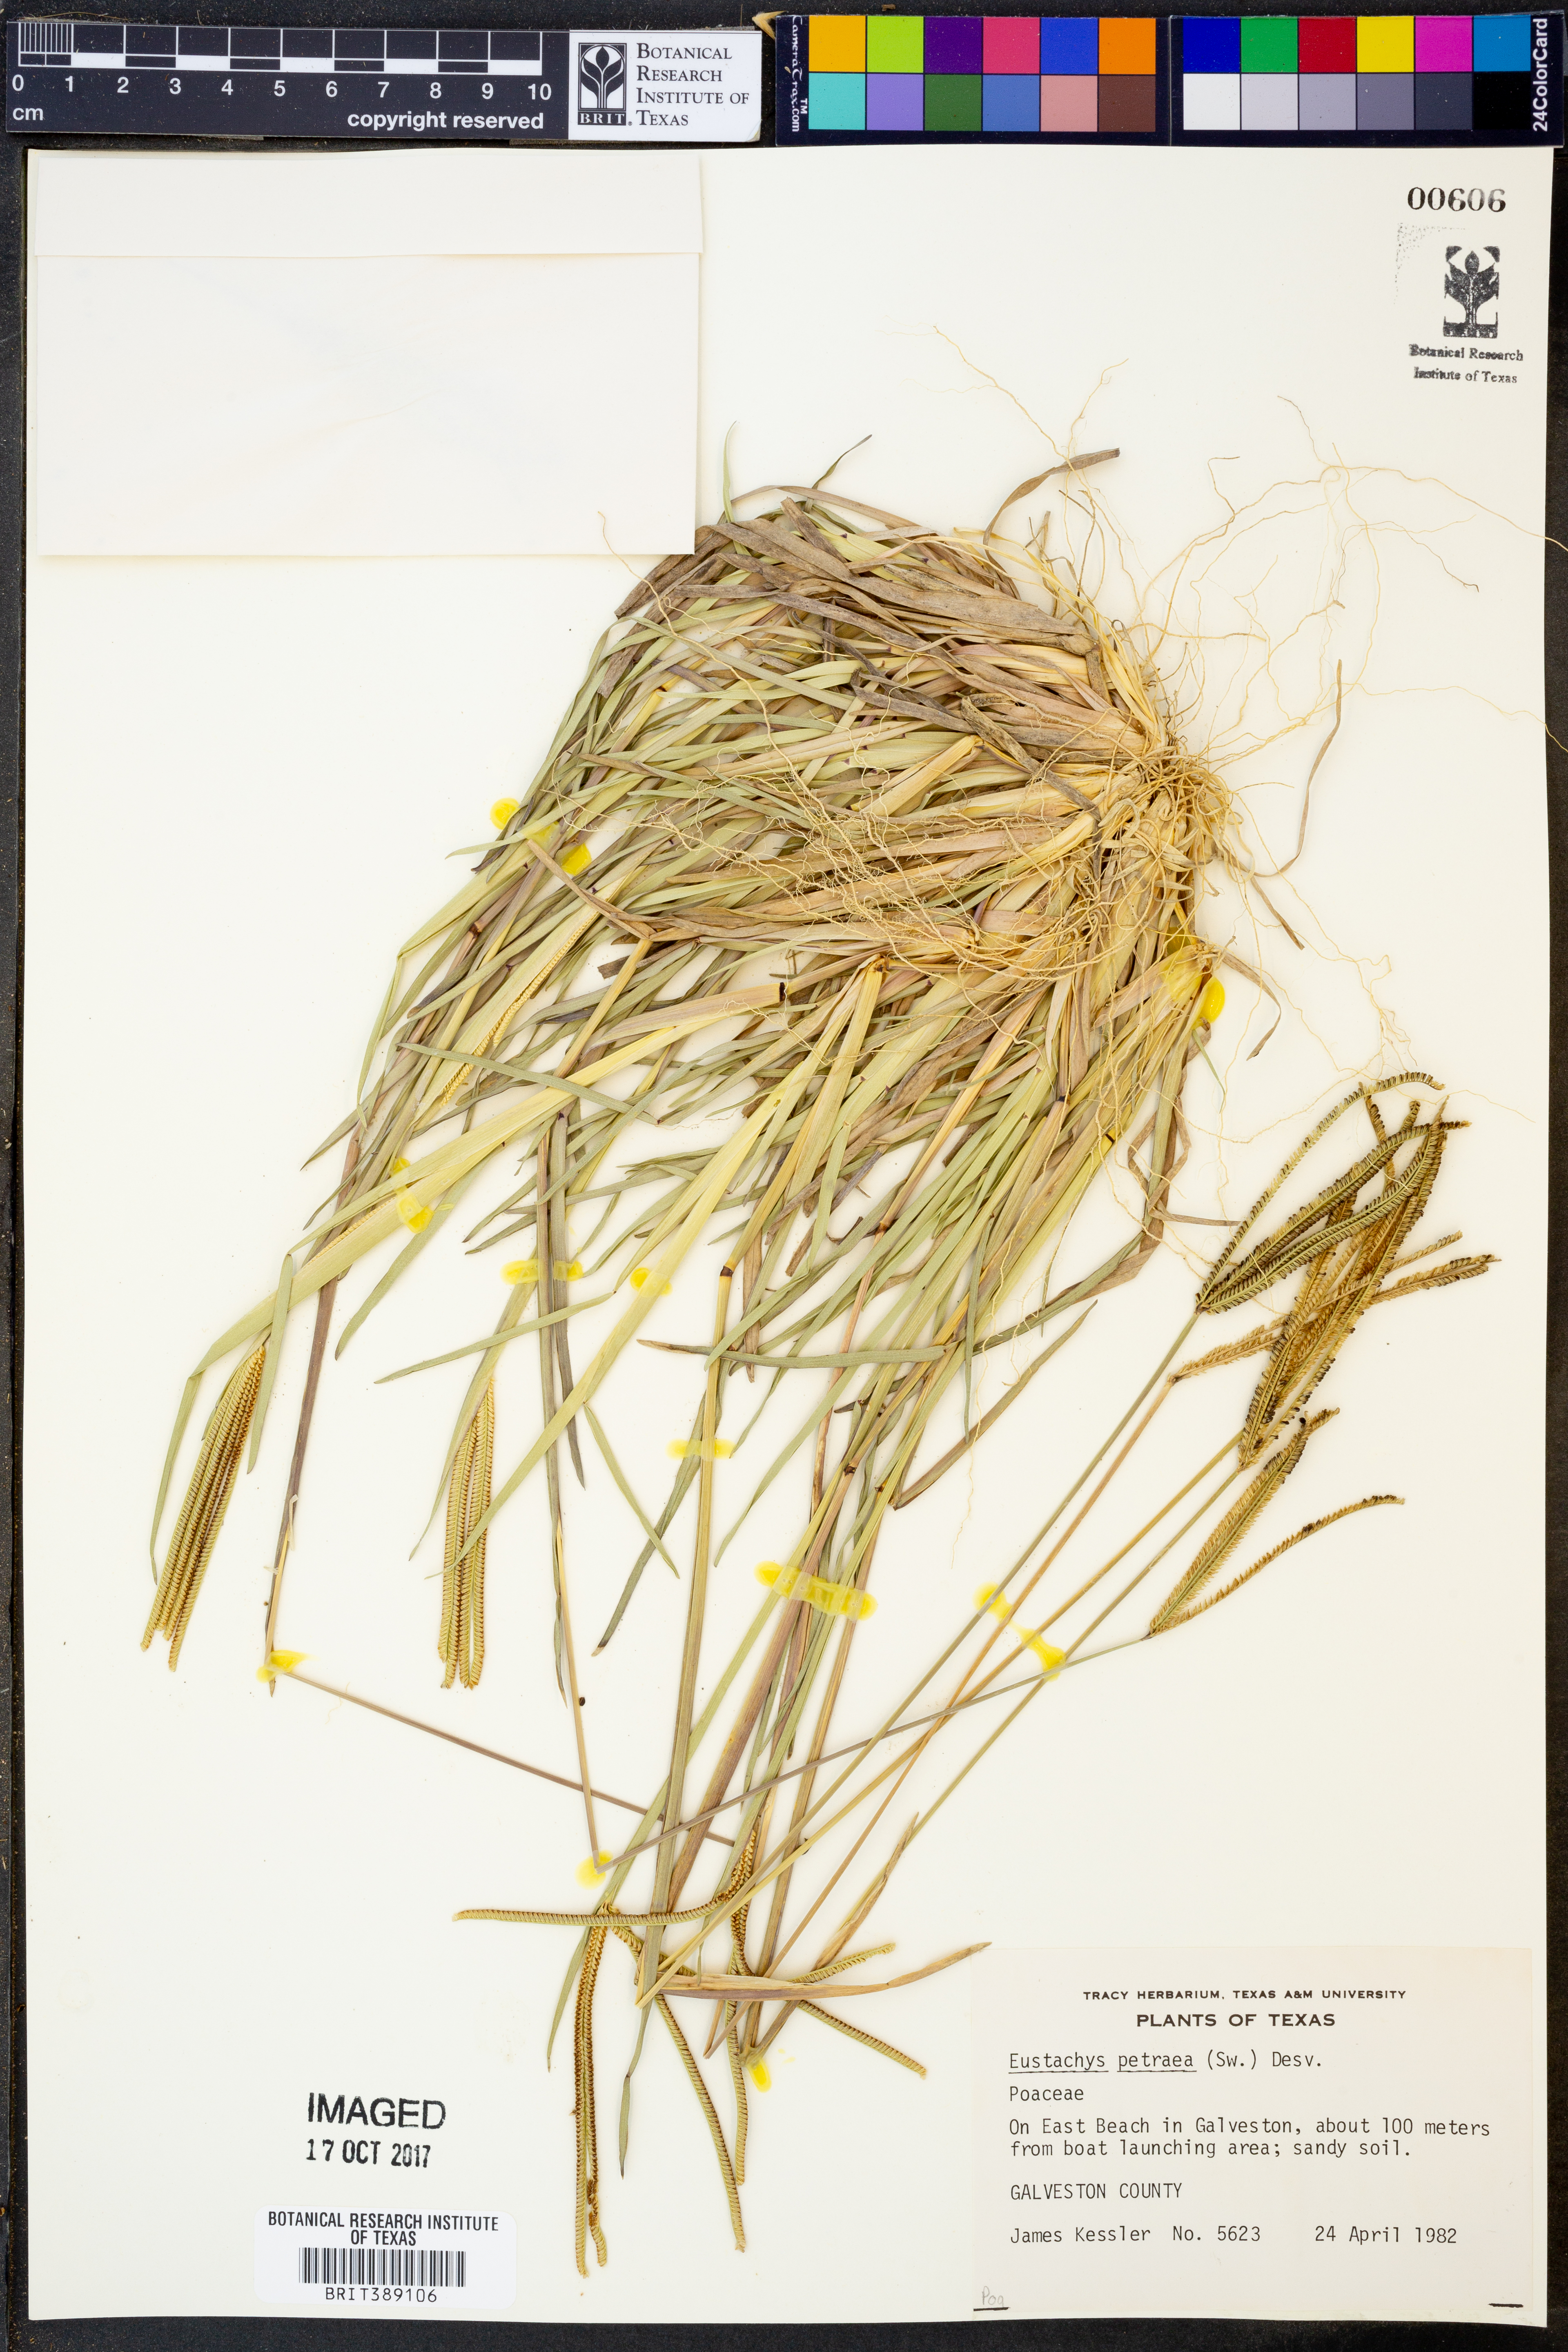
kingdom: Plantae
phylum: Tracheophyta
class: Liliopsida
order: Poales
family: Poaceae
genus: Eustachys
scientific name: Eustachys petraea
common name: Pinewoods fingergrass
